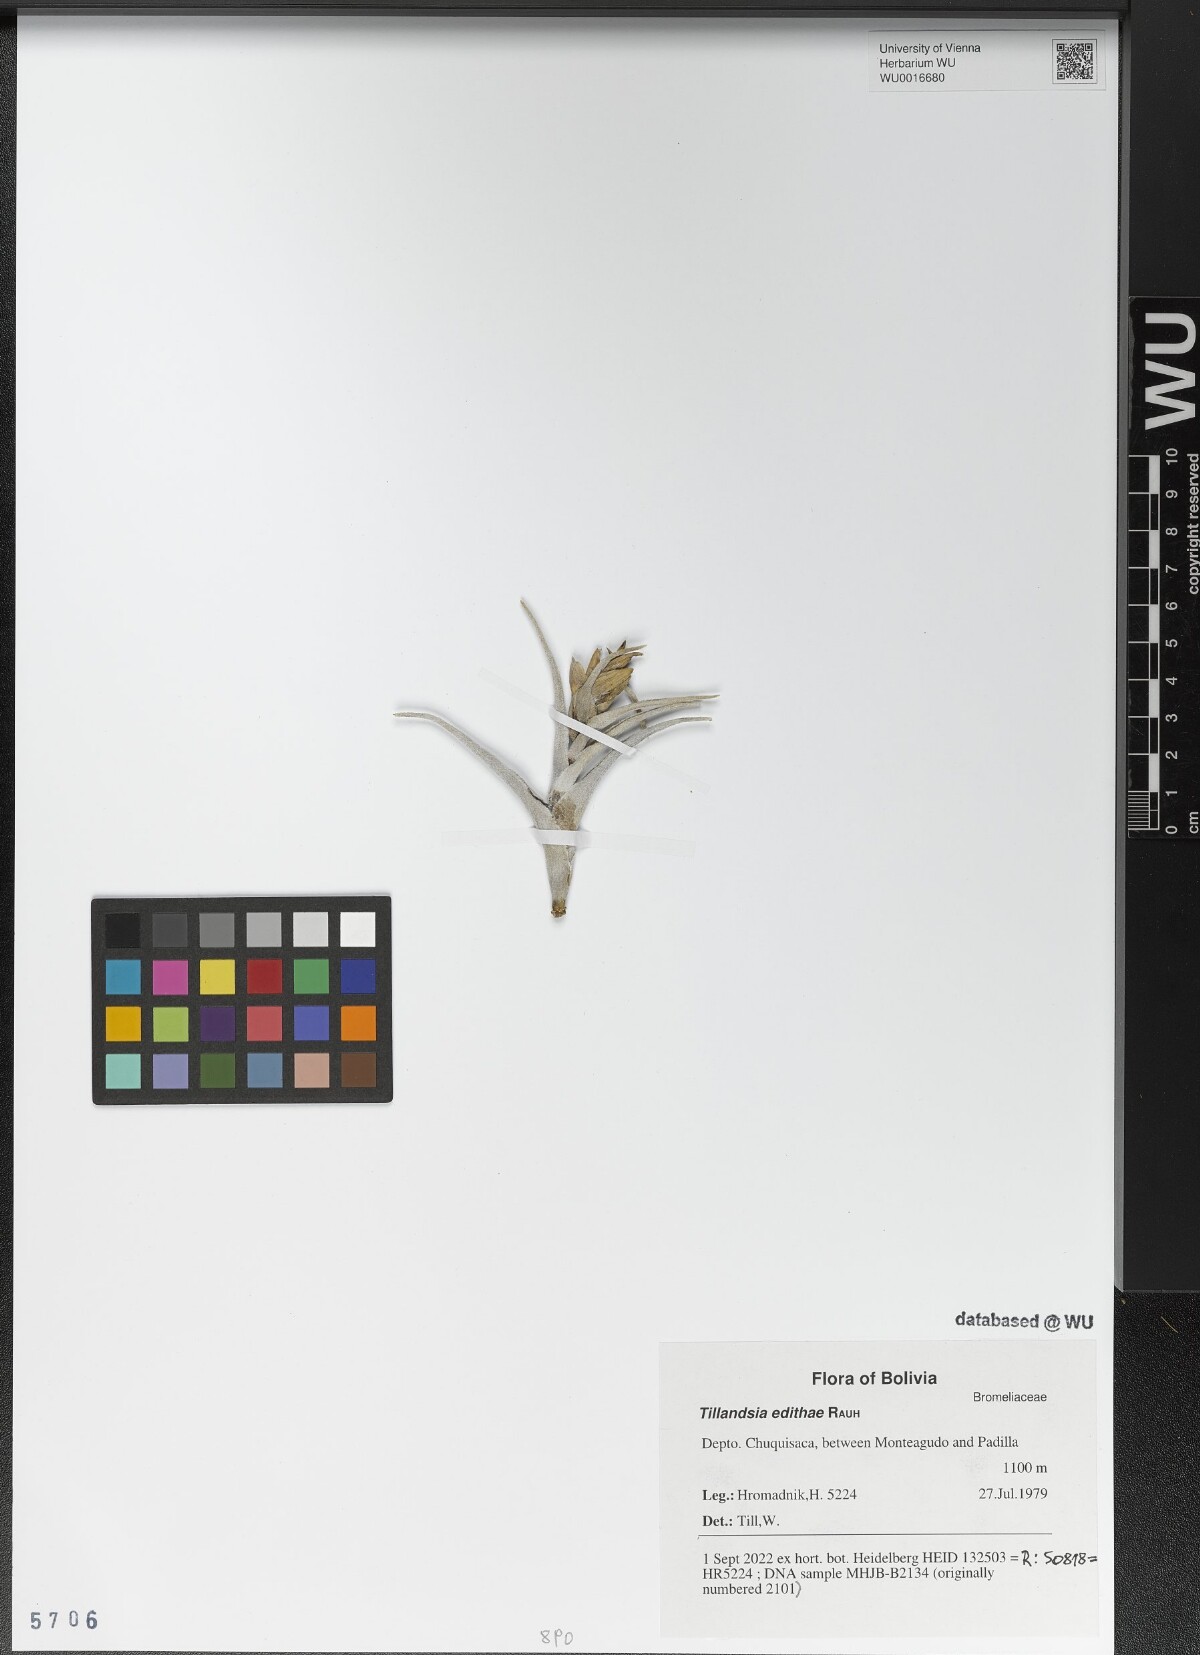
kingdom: Plantae
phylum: Tracheophyta
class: Liliopsida
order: Poales
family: Bromeliaceae
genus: Tillandsia
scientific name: Tillandsia edithae
